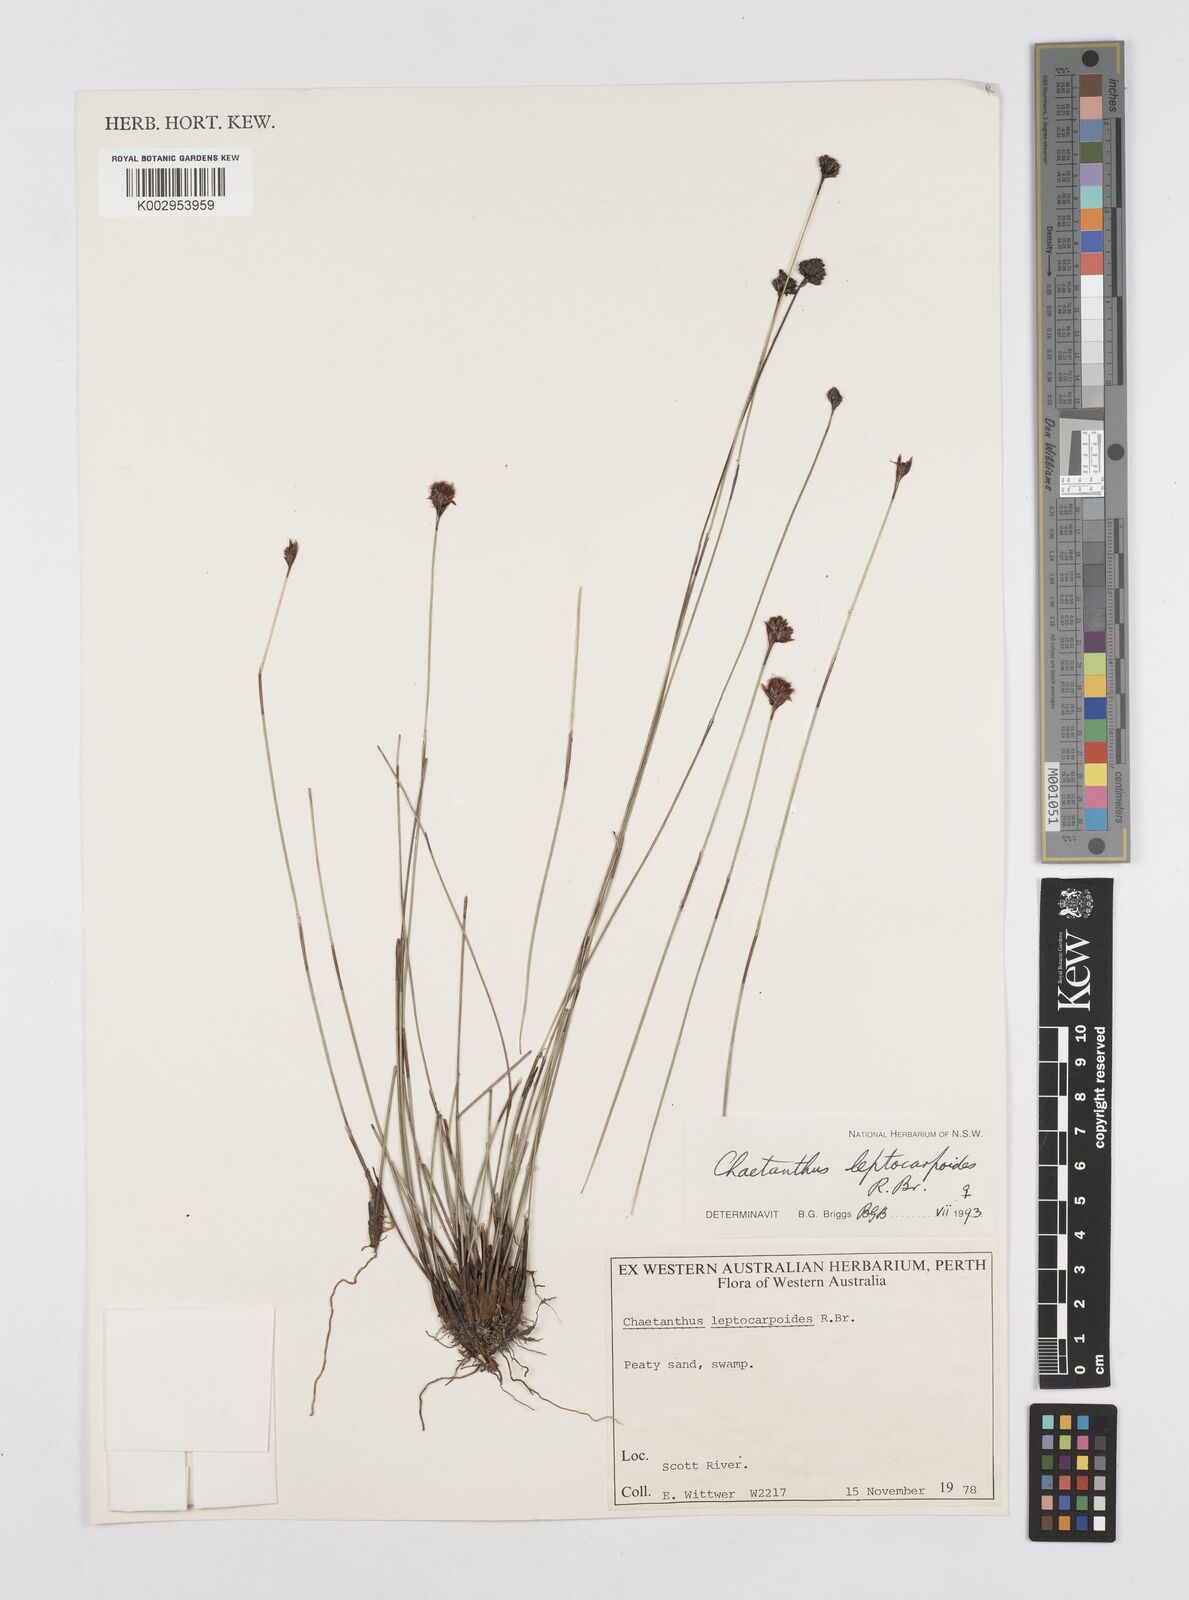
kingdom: Plantae
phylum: Tracheophyta
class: Liliopsida
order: Poales
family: Restionaceae
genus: Chaetanthus
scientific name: Chaetanthus leptocarpoides
